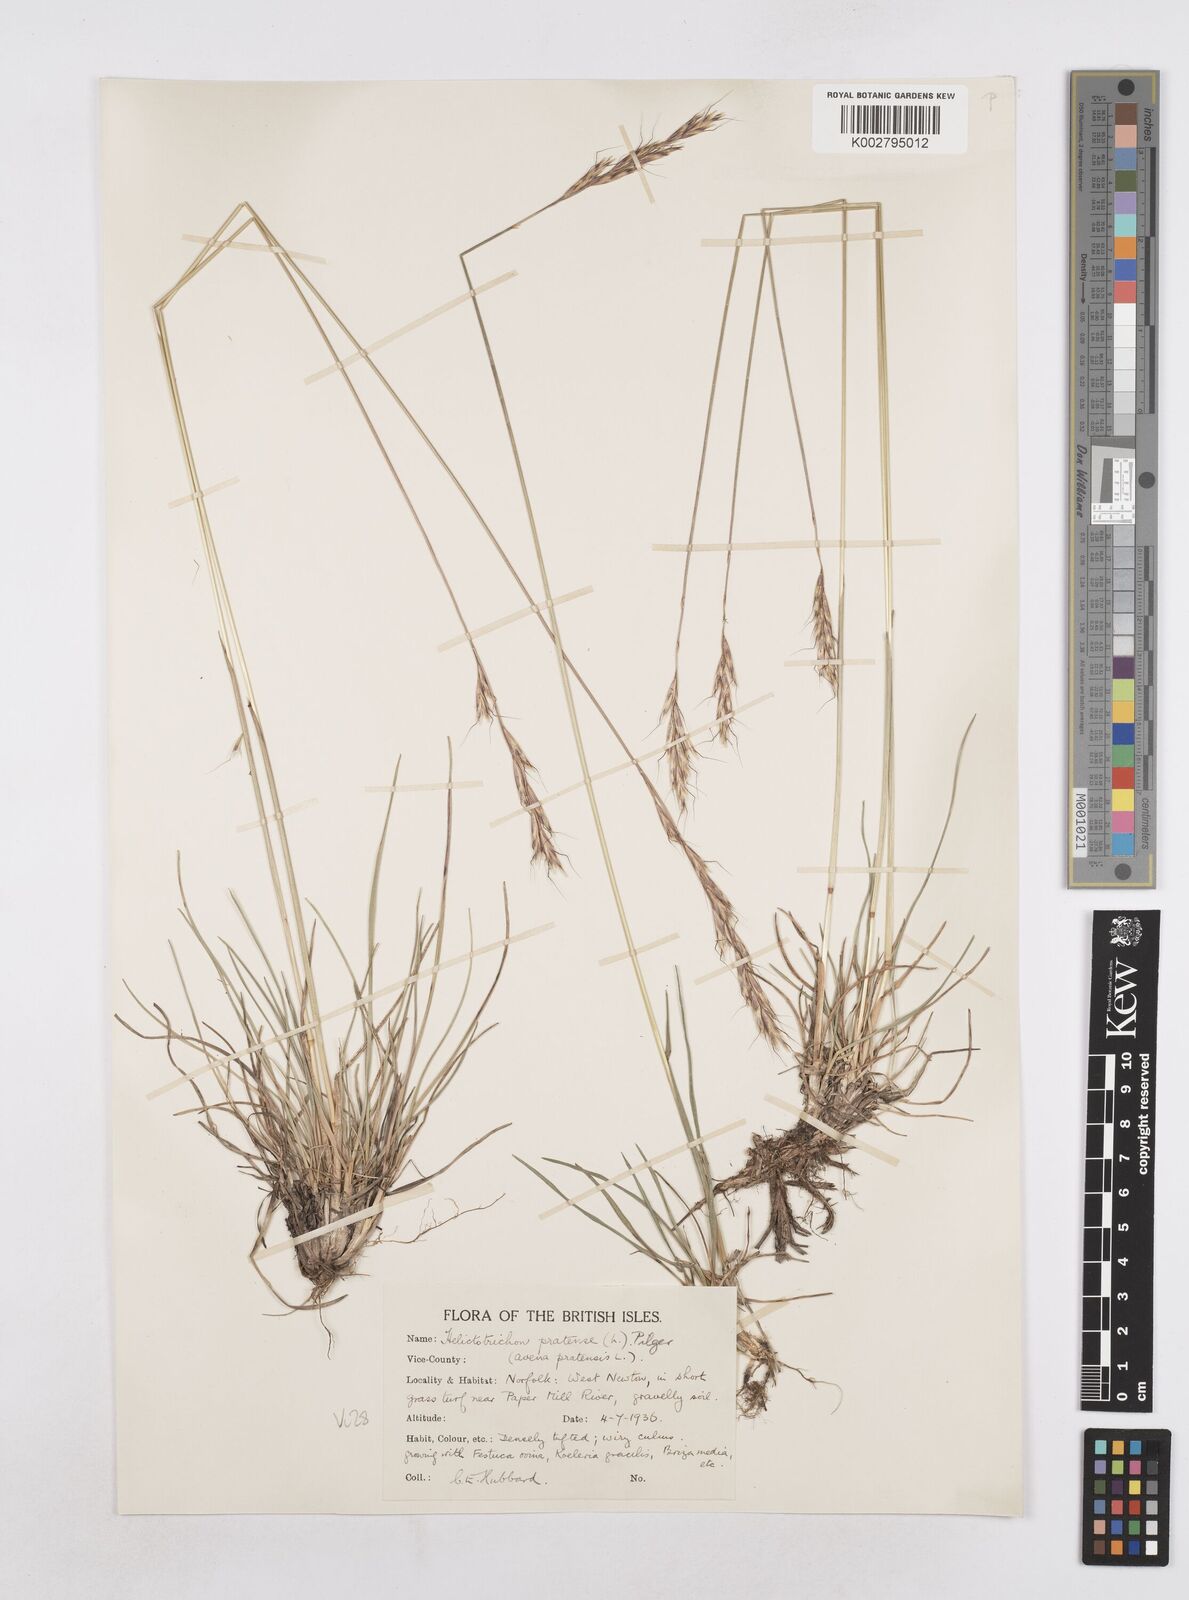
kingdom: Plantae
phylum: Tracheophyta
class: Liliopsida
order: Poales
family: Poaceae
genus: Helictochloa
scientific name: Helictochloa pratensis
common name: Meadow oat grass
